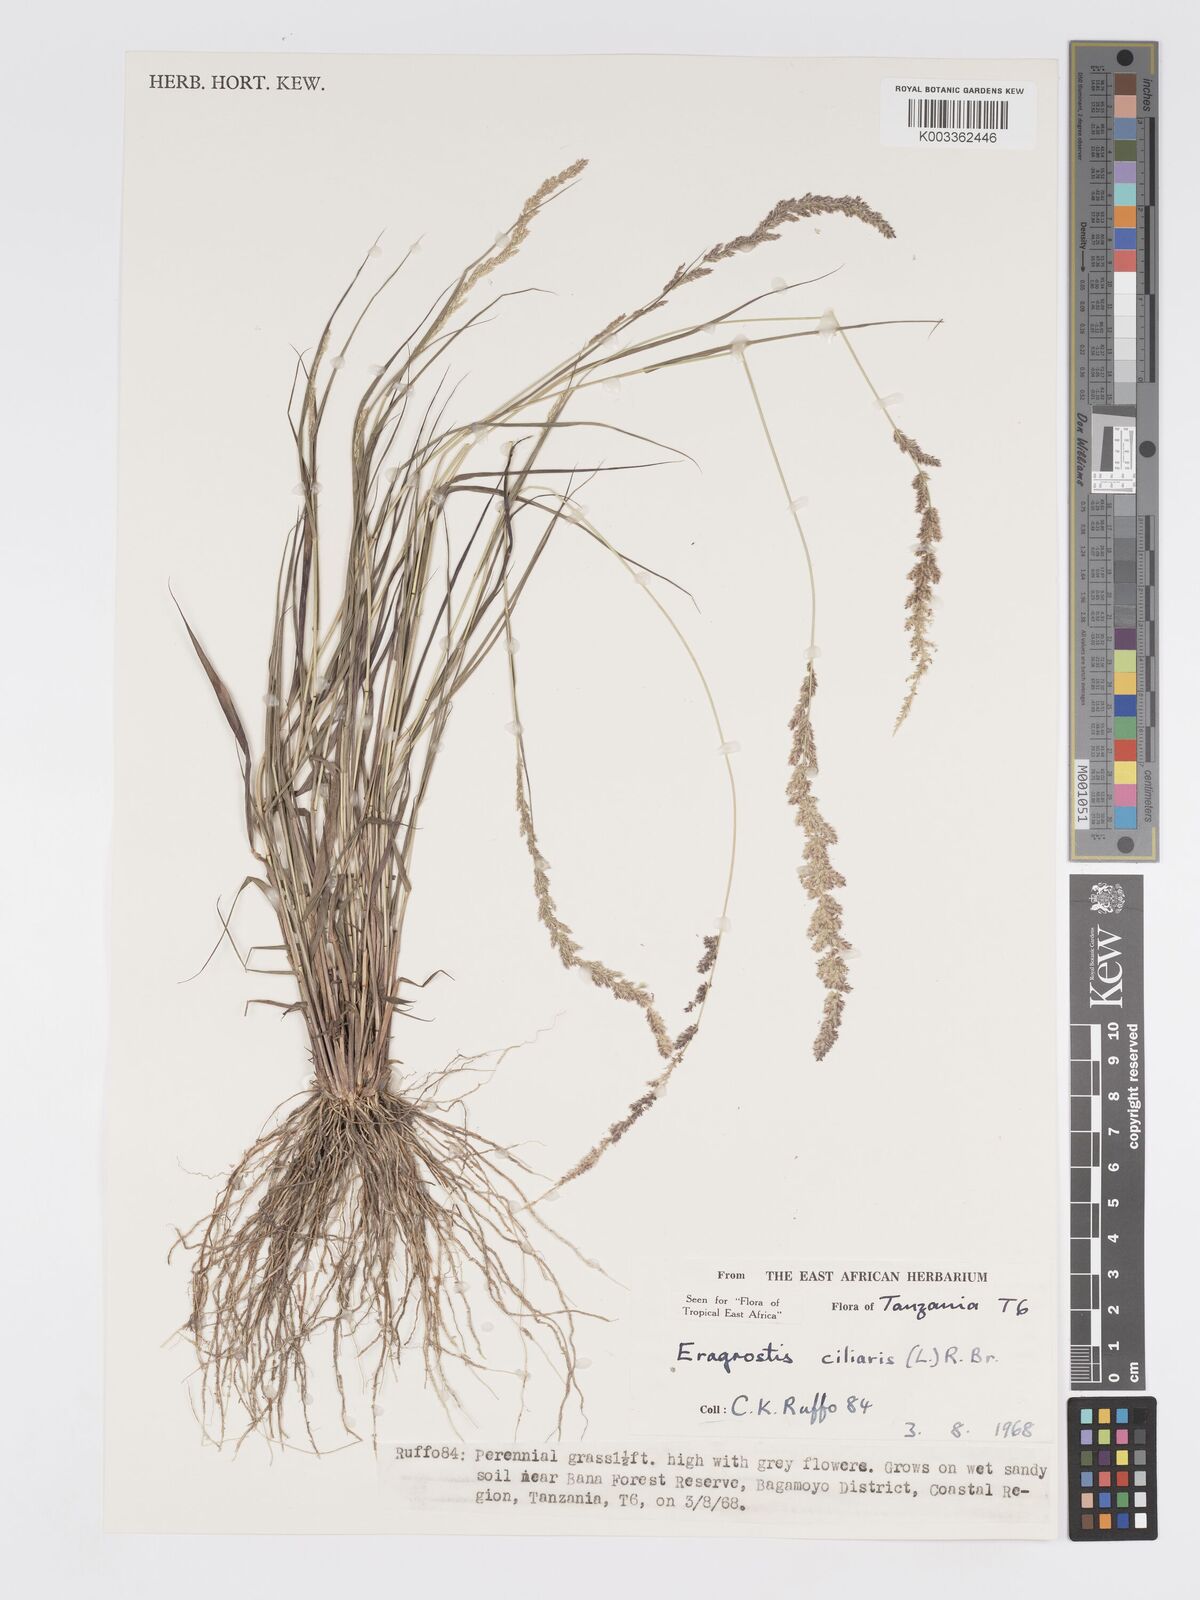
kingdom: Plantae
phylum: Tracheophyta
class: Liliopsida
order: Poales
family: Poaceae
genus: Eragrostis
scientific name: Eragrostis ciliaris
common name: Gophertail lovegrass
